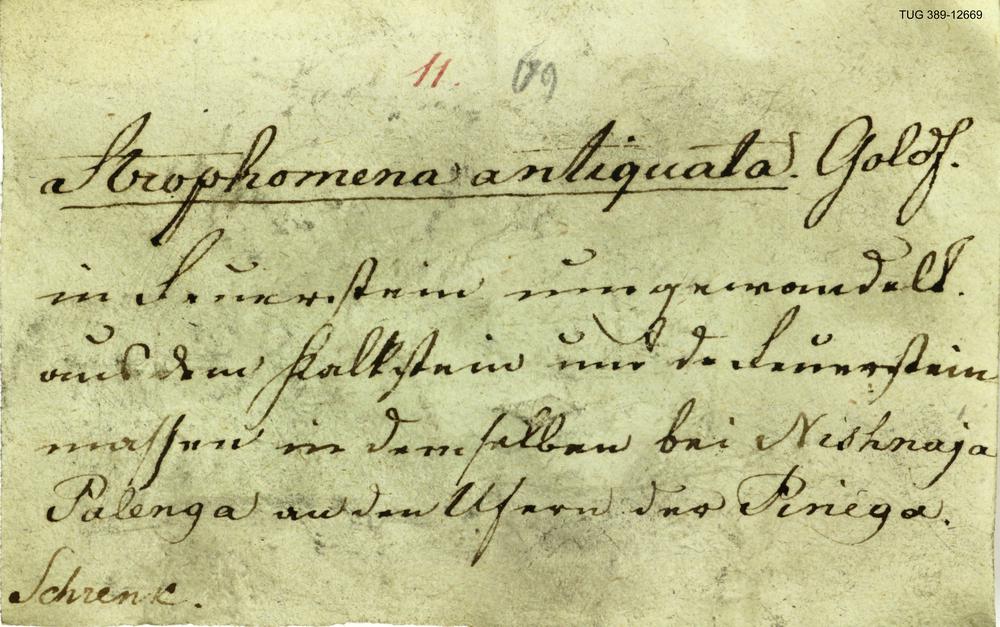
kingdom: Animalia
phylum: Brachiopoda
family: Strophomenidae
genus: Katastrophomena
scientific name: Katastrophomena Strophomena antiquata
